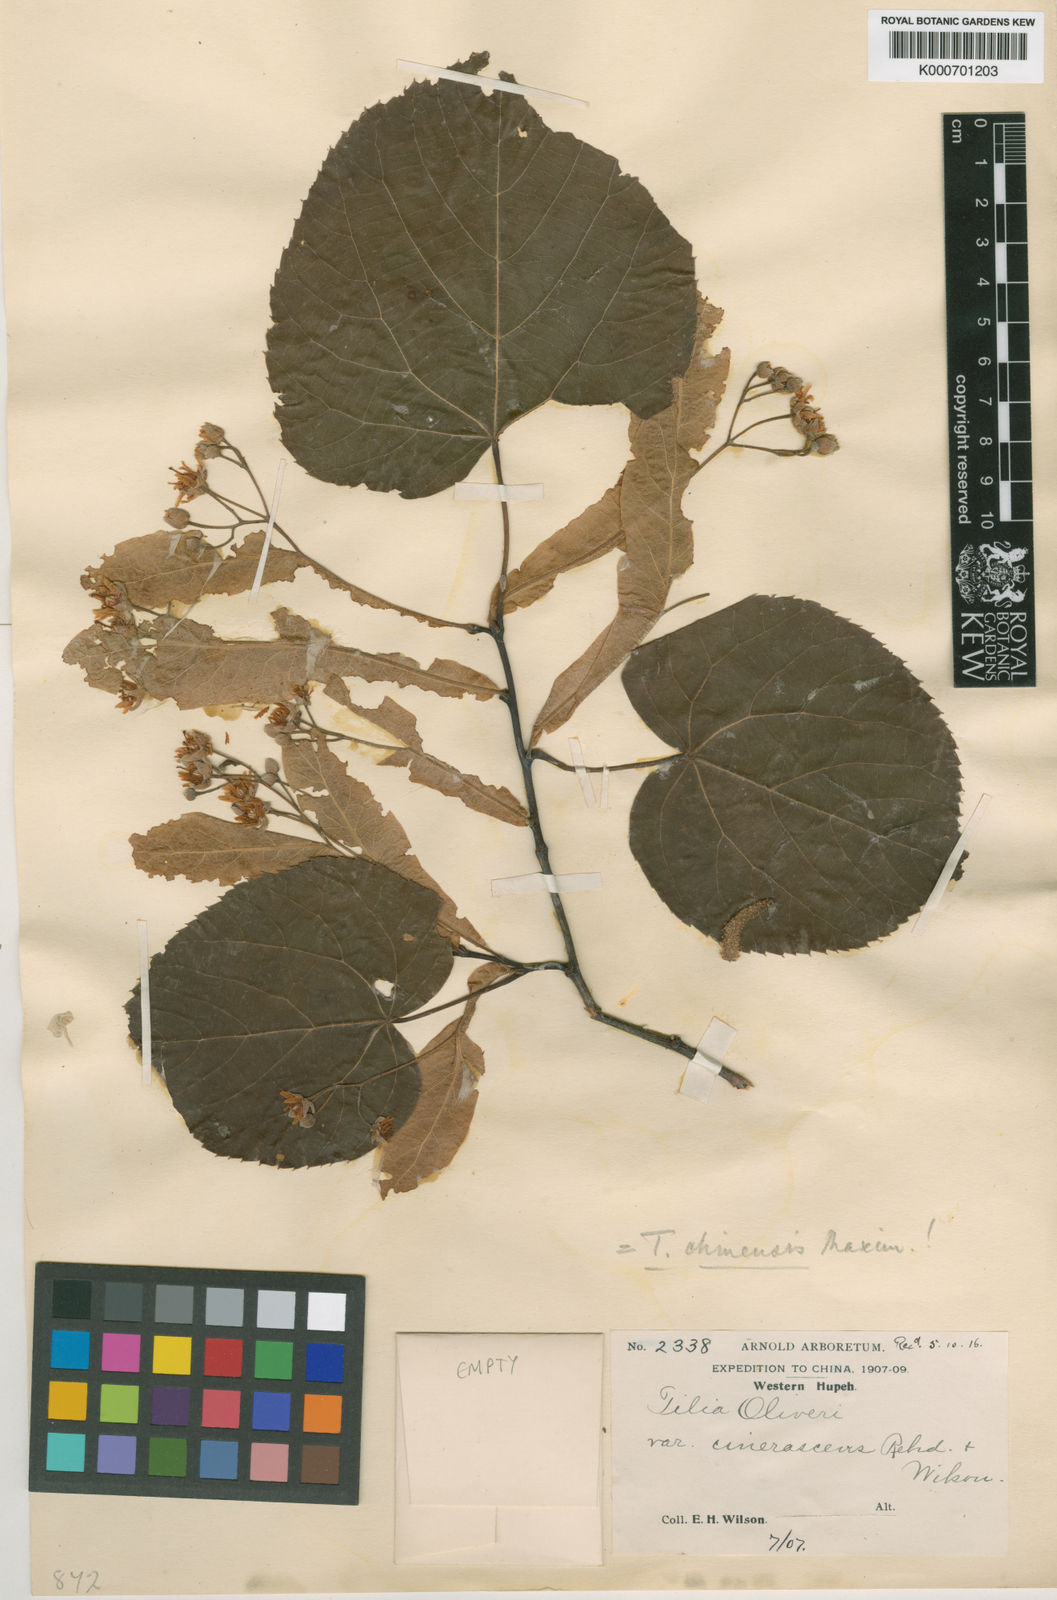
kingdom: Plantae
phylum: Tracheophyta
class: Magnoliopsida
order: Malvales
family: Malvaceae
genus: Tilia
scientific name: Tilia chinensis
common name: Chinese linden
